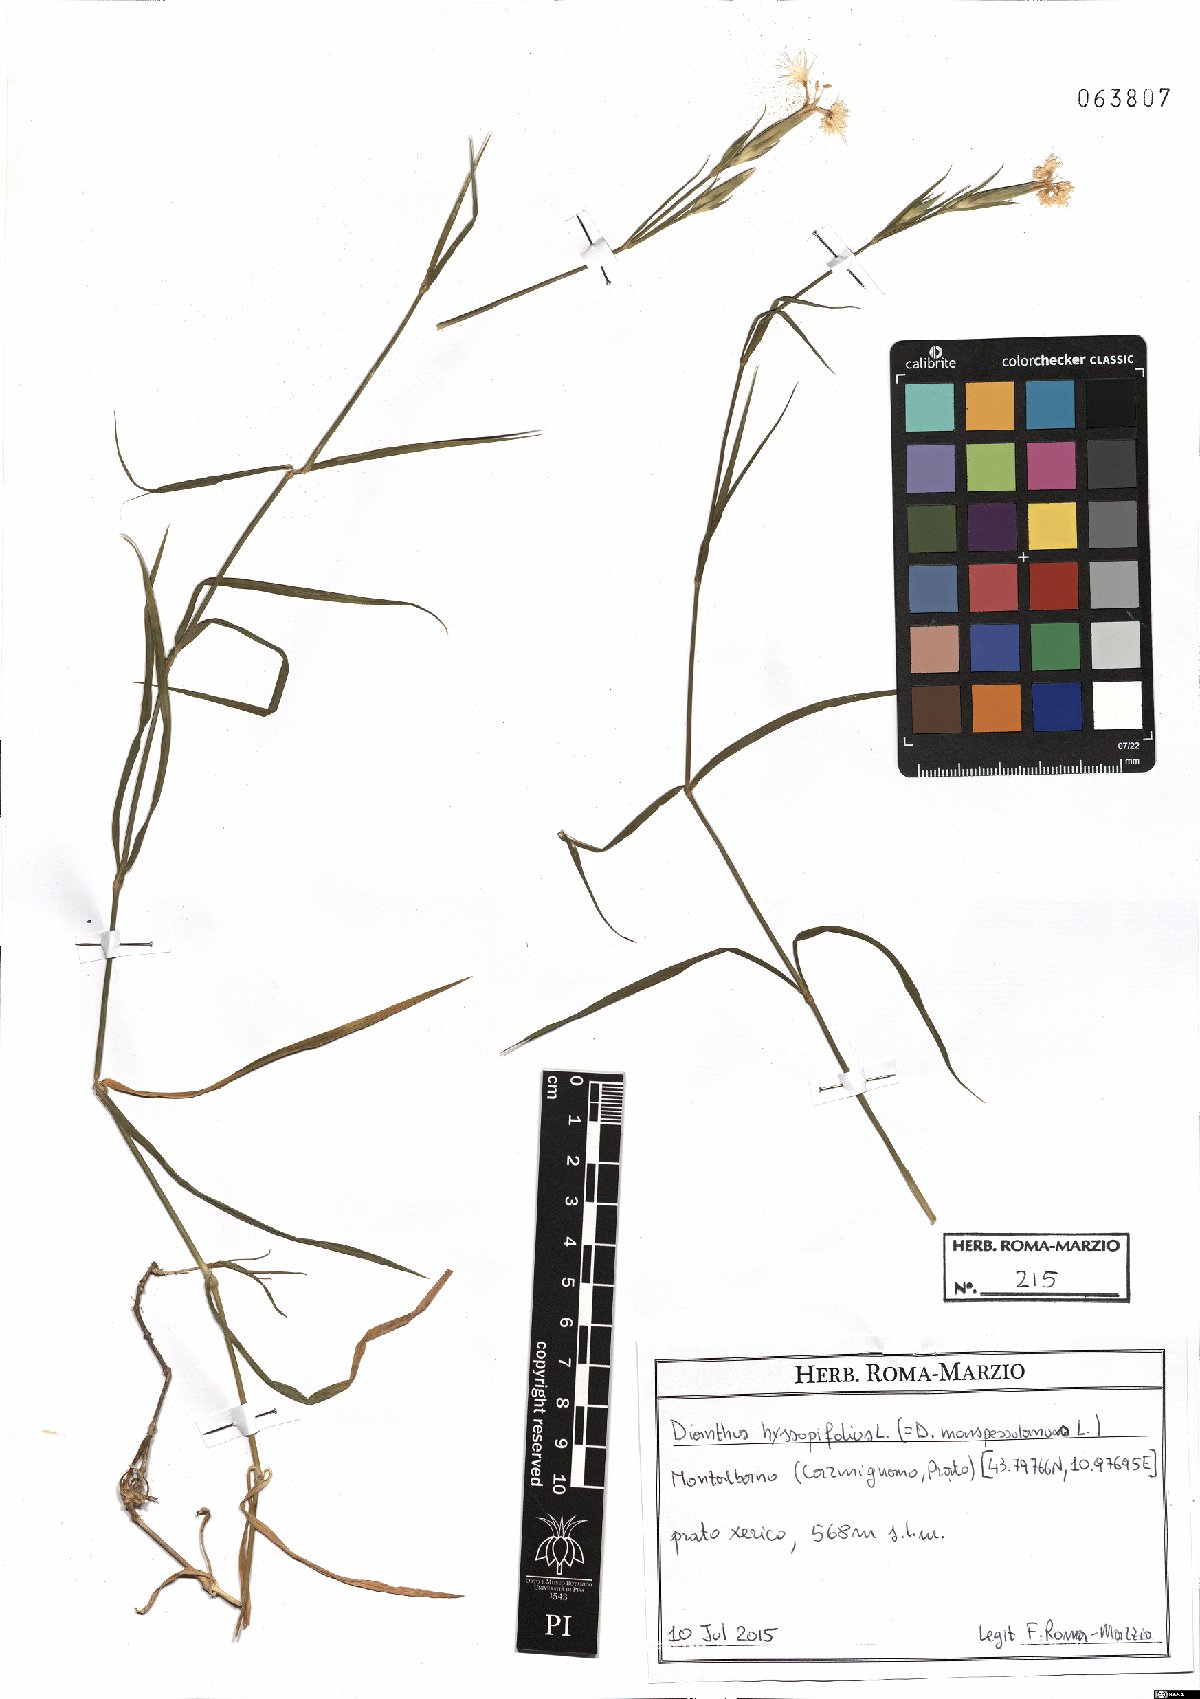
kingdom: Plantae
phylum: Tracheophyta
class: Magnoliopsida
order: Caryophyllales
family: Caryophyllaceae
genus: Dianthus
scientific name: Dianthus hyssopifolius
